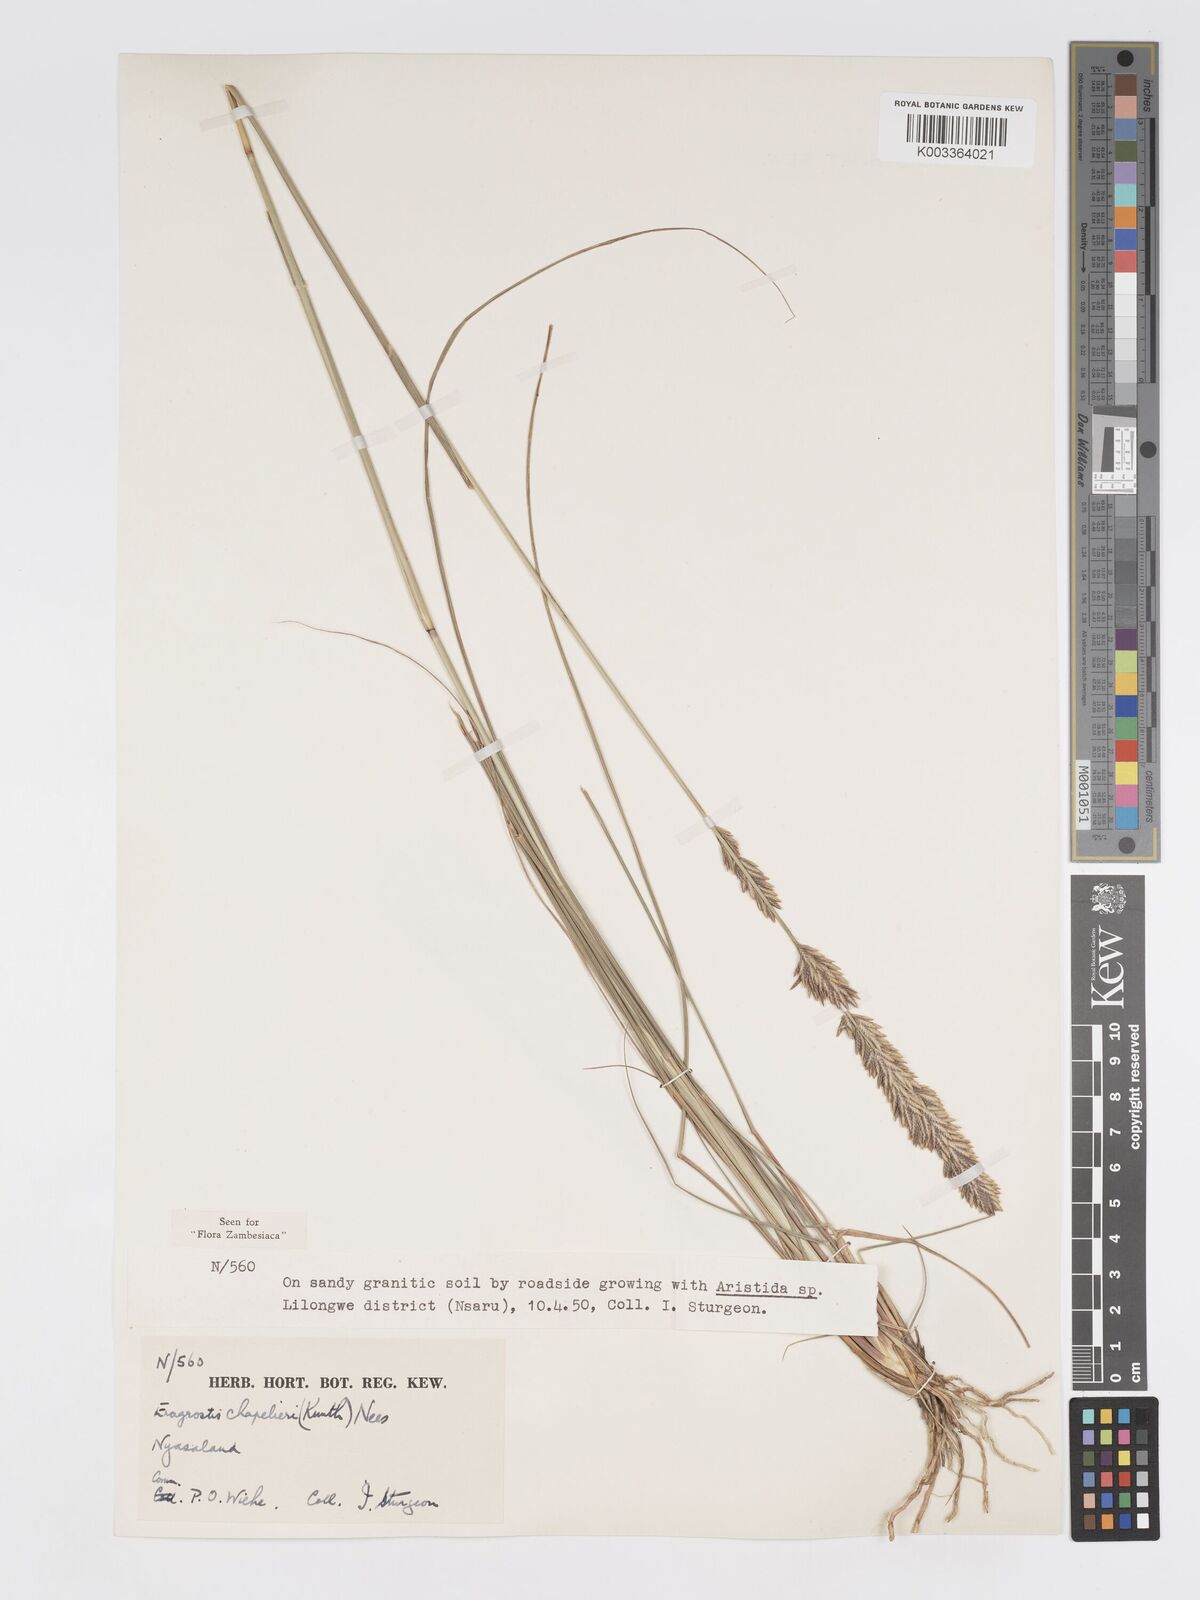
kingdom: Plantae
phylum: Tracheophyta
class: Liliopsida
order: Poales
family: Poaceae
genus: Eragrostis
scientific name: Eragrostis chapelieri
